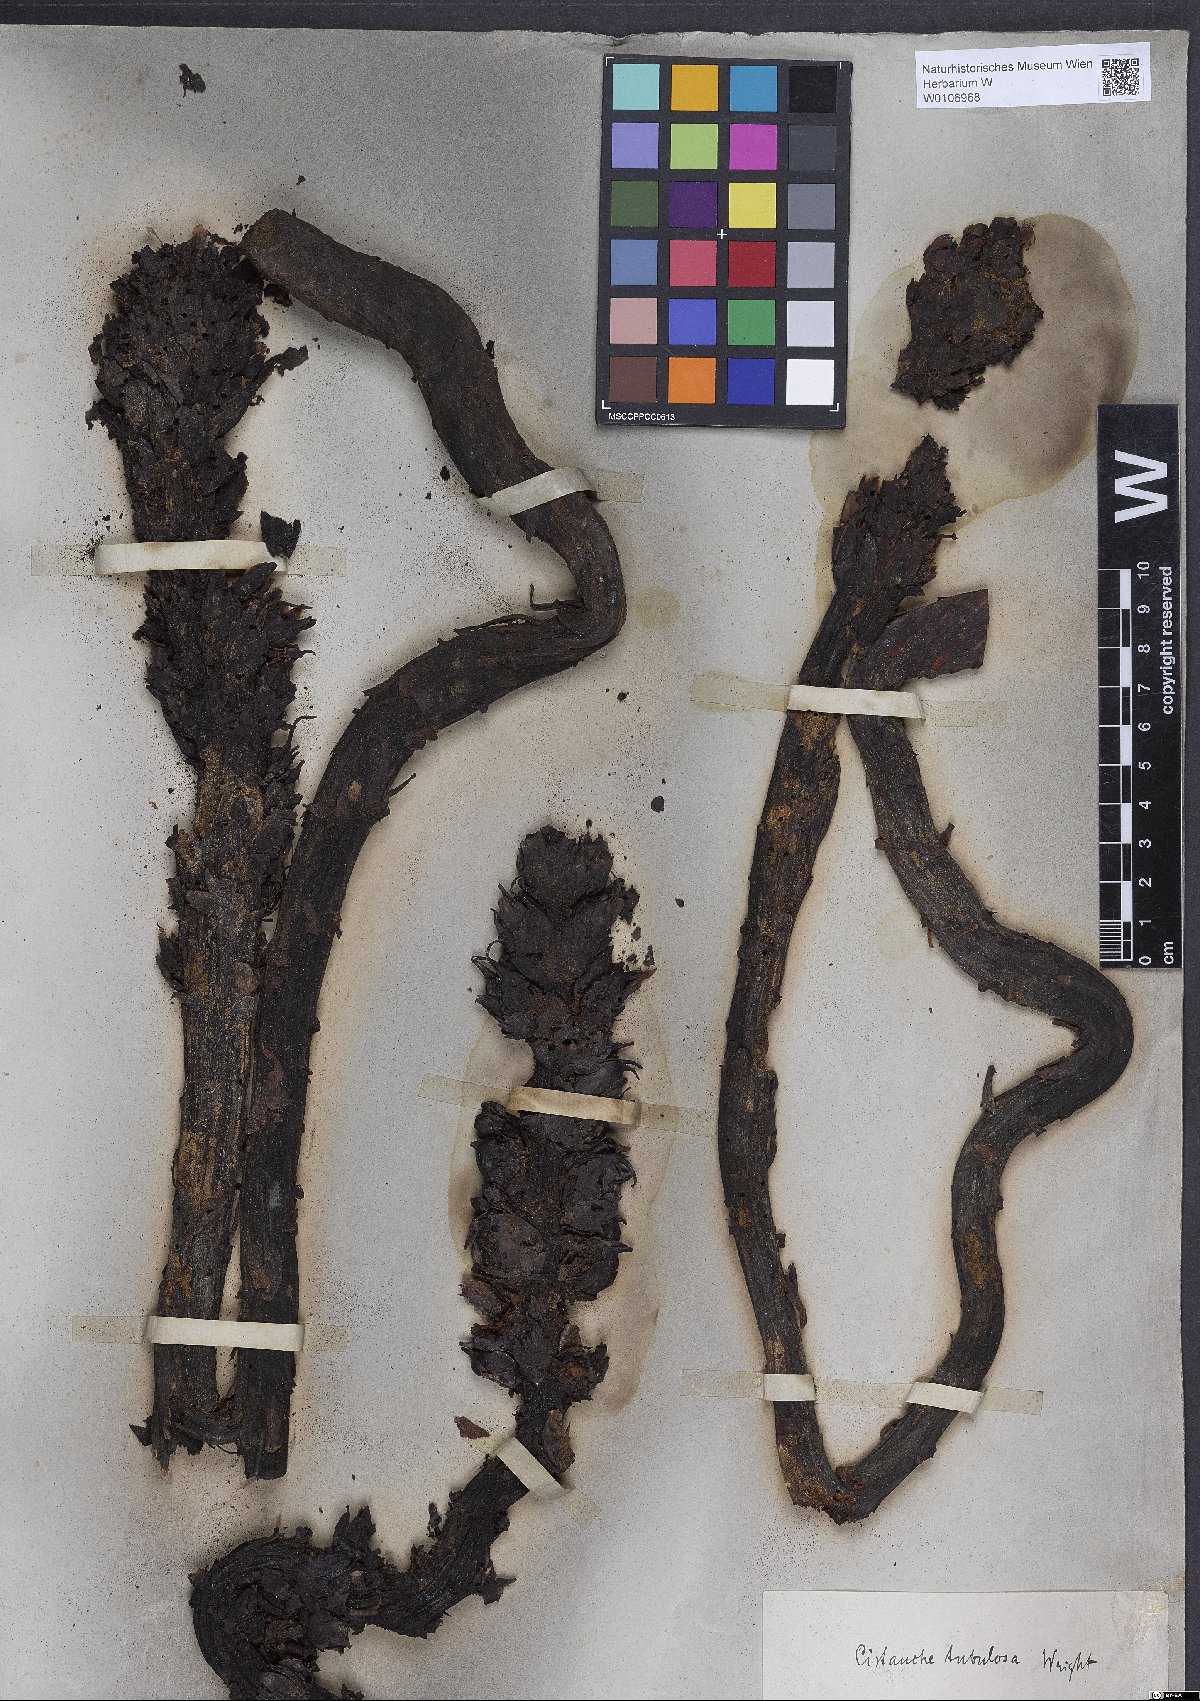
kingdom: Plantae
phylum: Tracheophyta
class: Magnoliopsida
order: Lamiales
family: Orobanchaceae
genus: Cistanche
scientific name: Cistanche tubulosa
